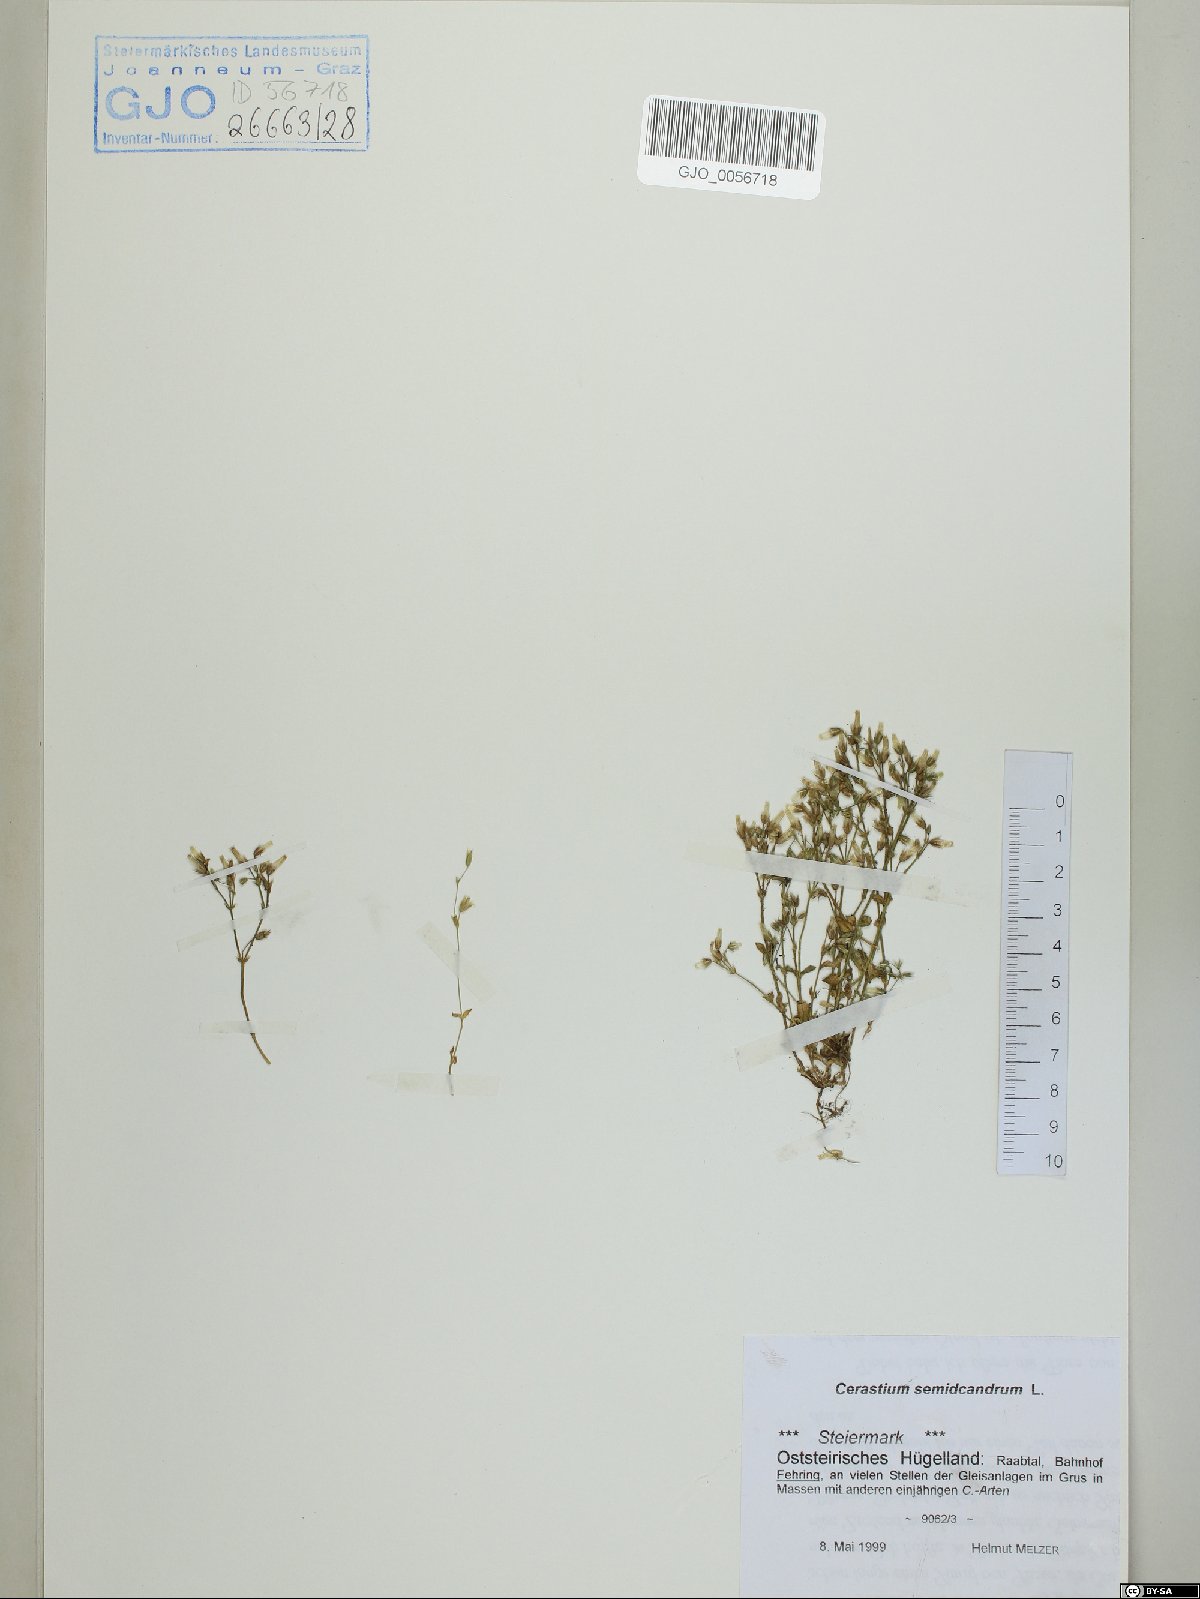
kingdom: Plantae
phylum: Tracheophyta
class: Magnoliopsida
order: Caryophyllales
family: Caryophyllaceae
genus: Cerastium
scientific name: Cerastium semidecandrum
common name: Little mouse-ear
